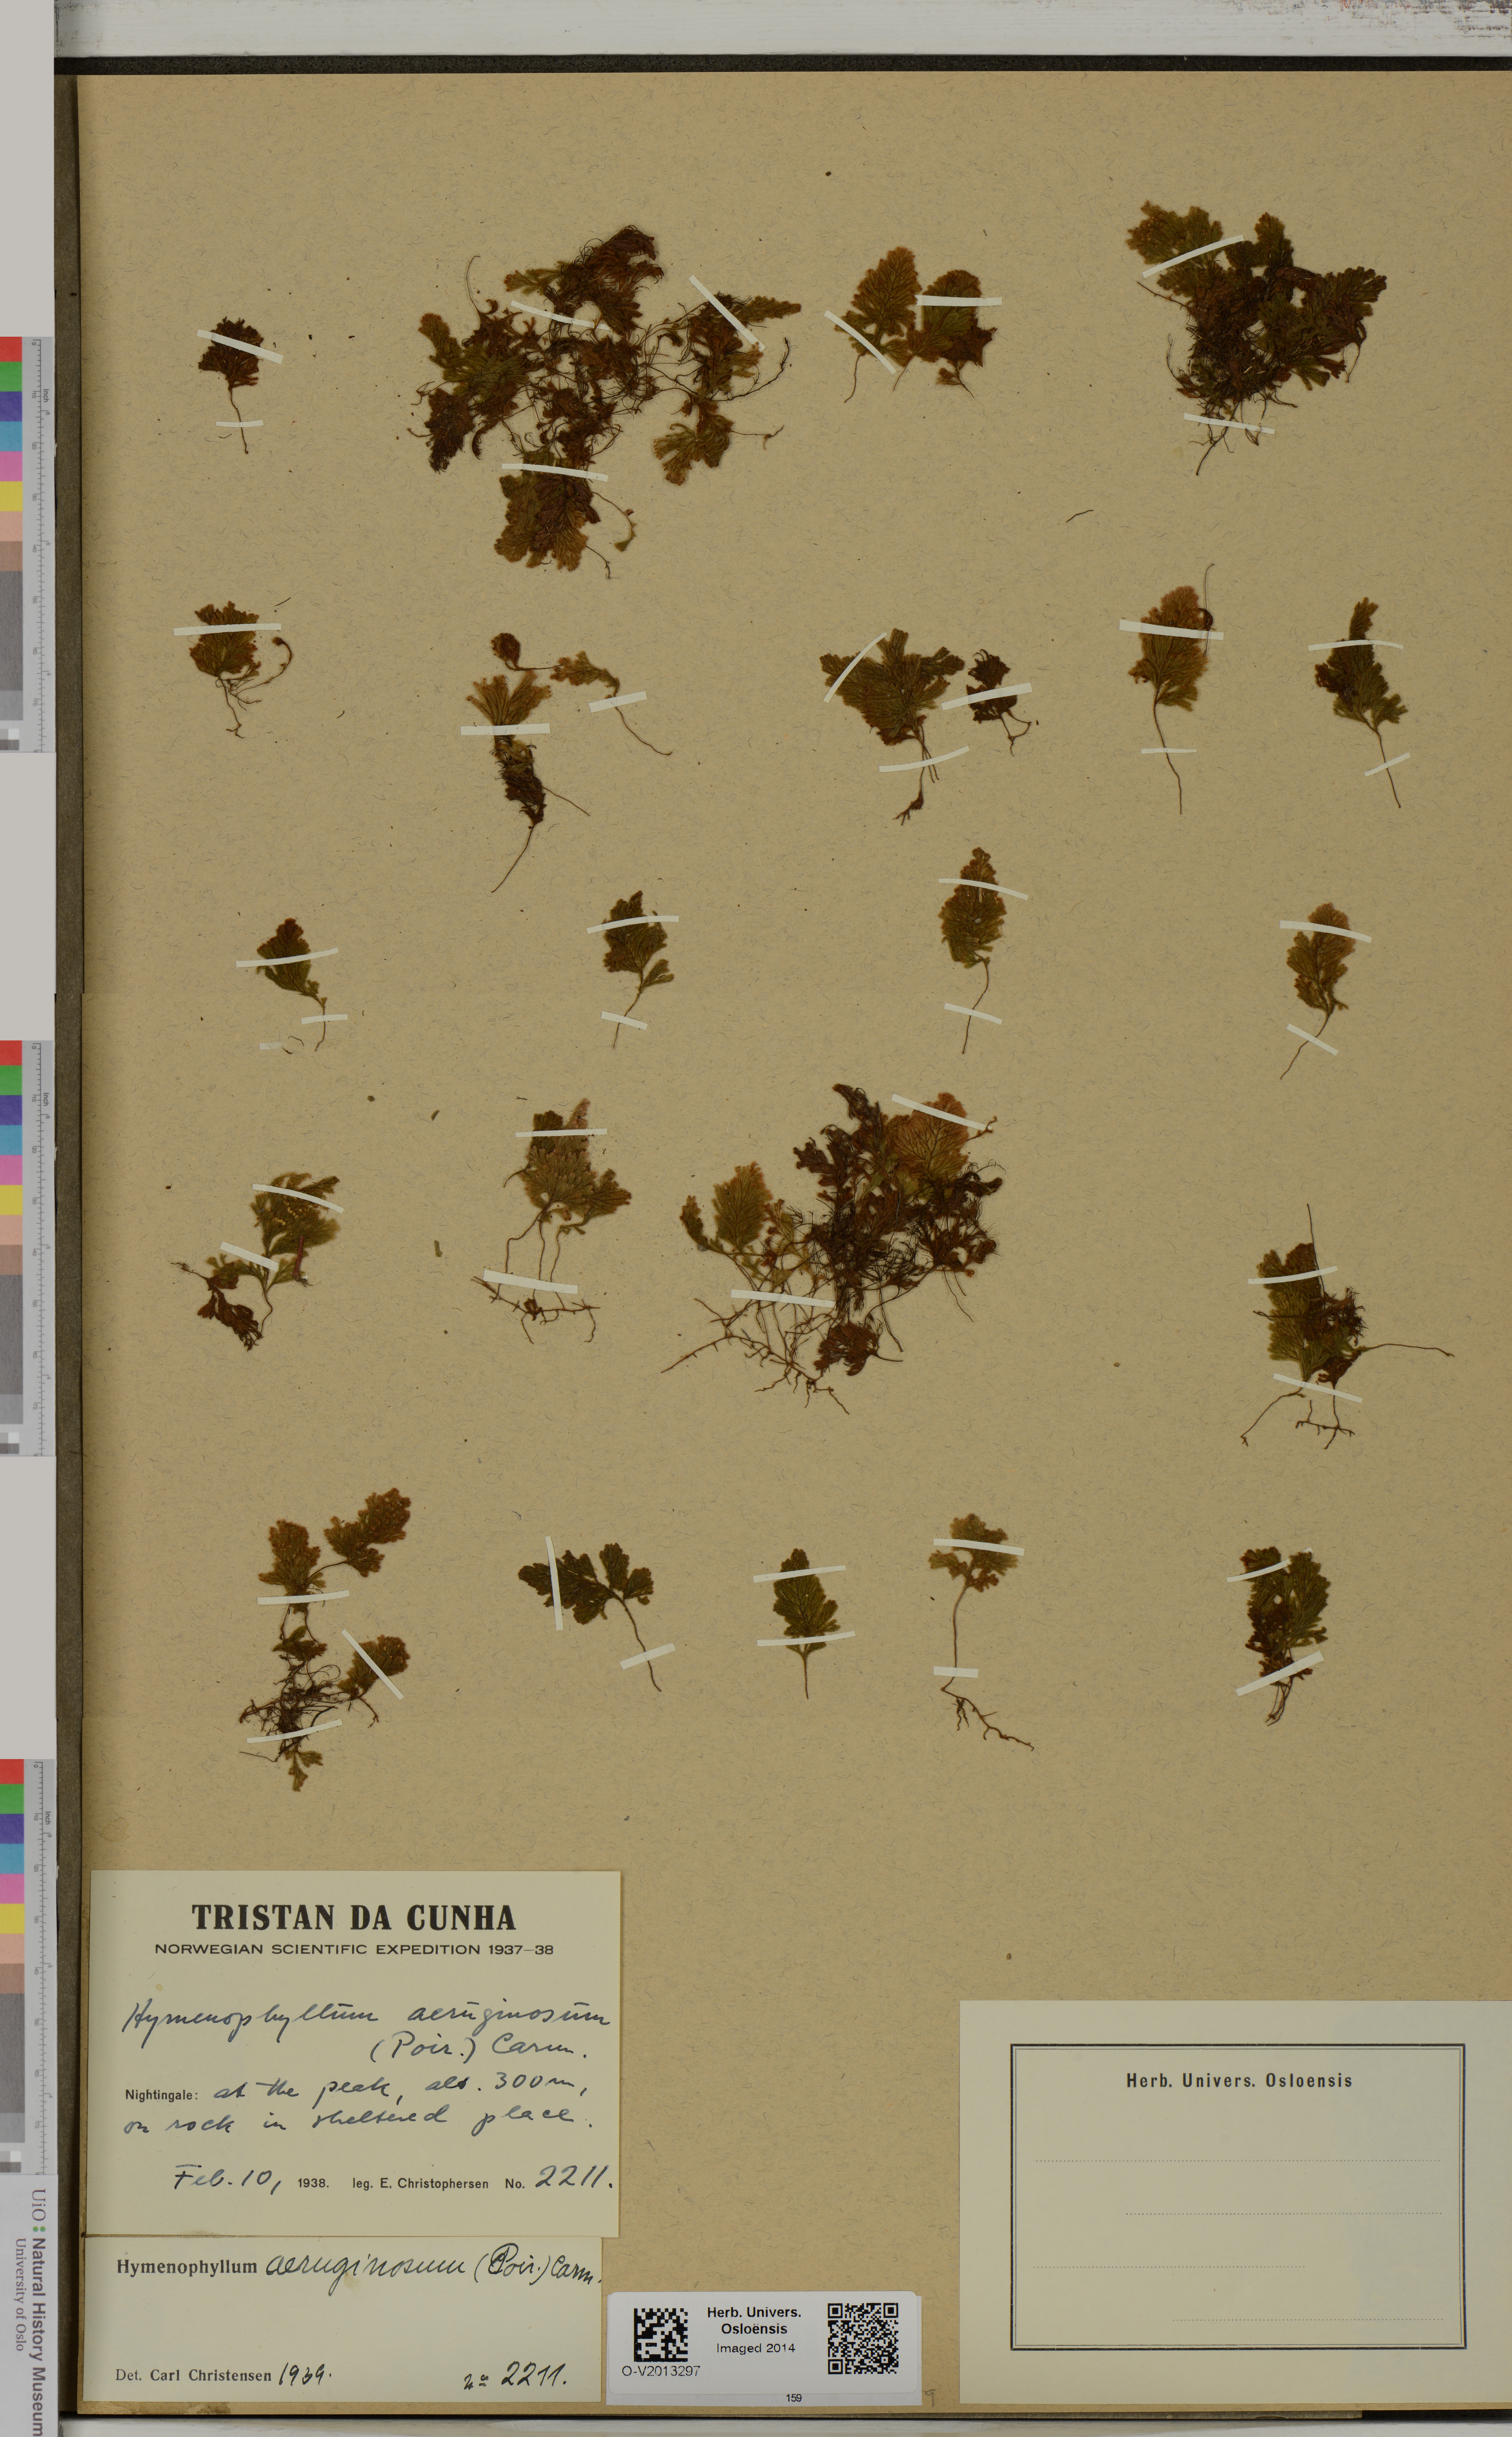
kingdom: Plantae
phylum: Tracheophyta
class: Polypodiopsida
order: Hymenophyllales
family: Hymenophyllaceae
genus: Hymenophyllum
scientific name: Hymenophyllum aeruginosum
